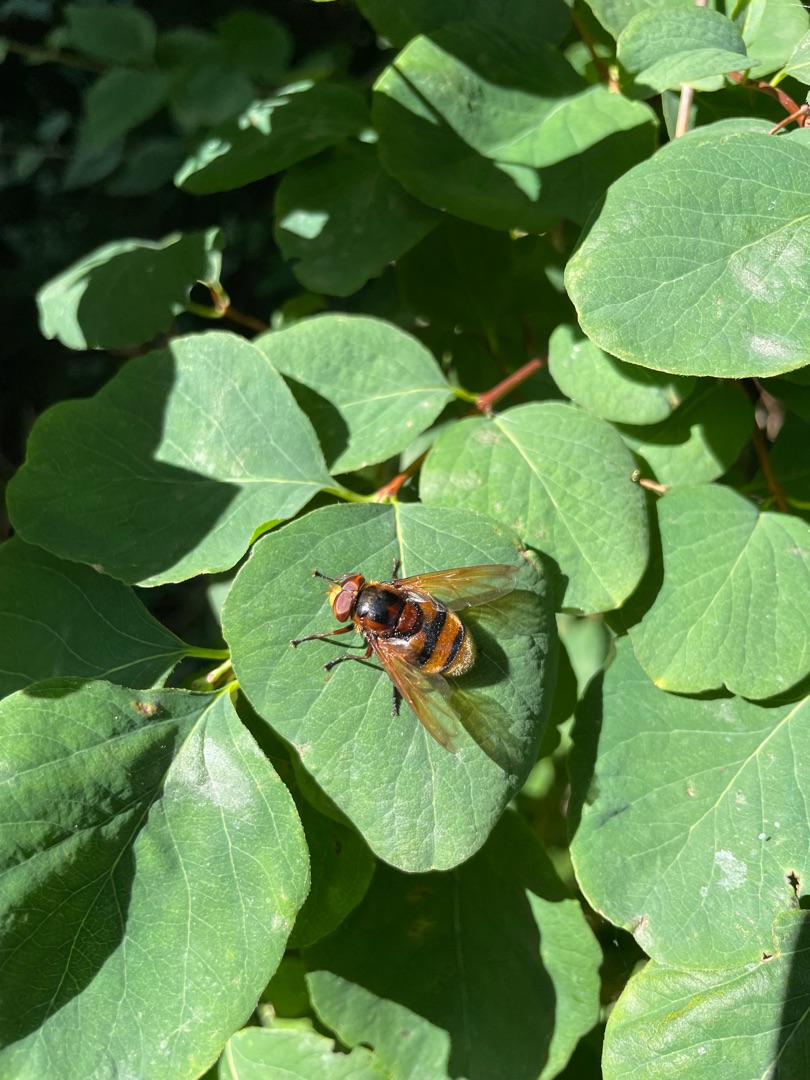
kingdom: Animalia
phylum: Arthropoda
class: Insecta
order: Diptera
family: Syrphidae
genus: Volucella
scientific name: Volucella zonaria
